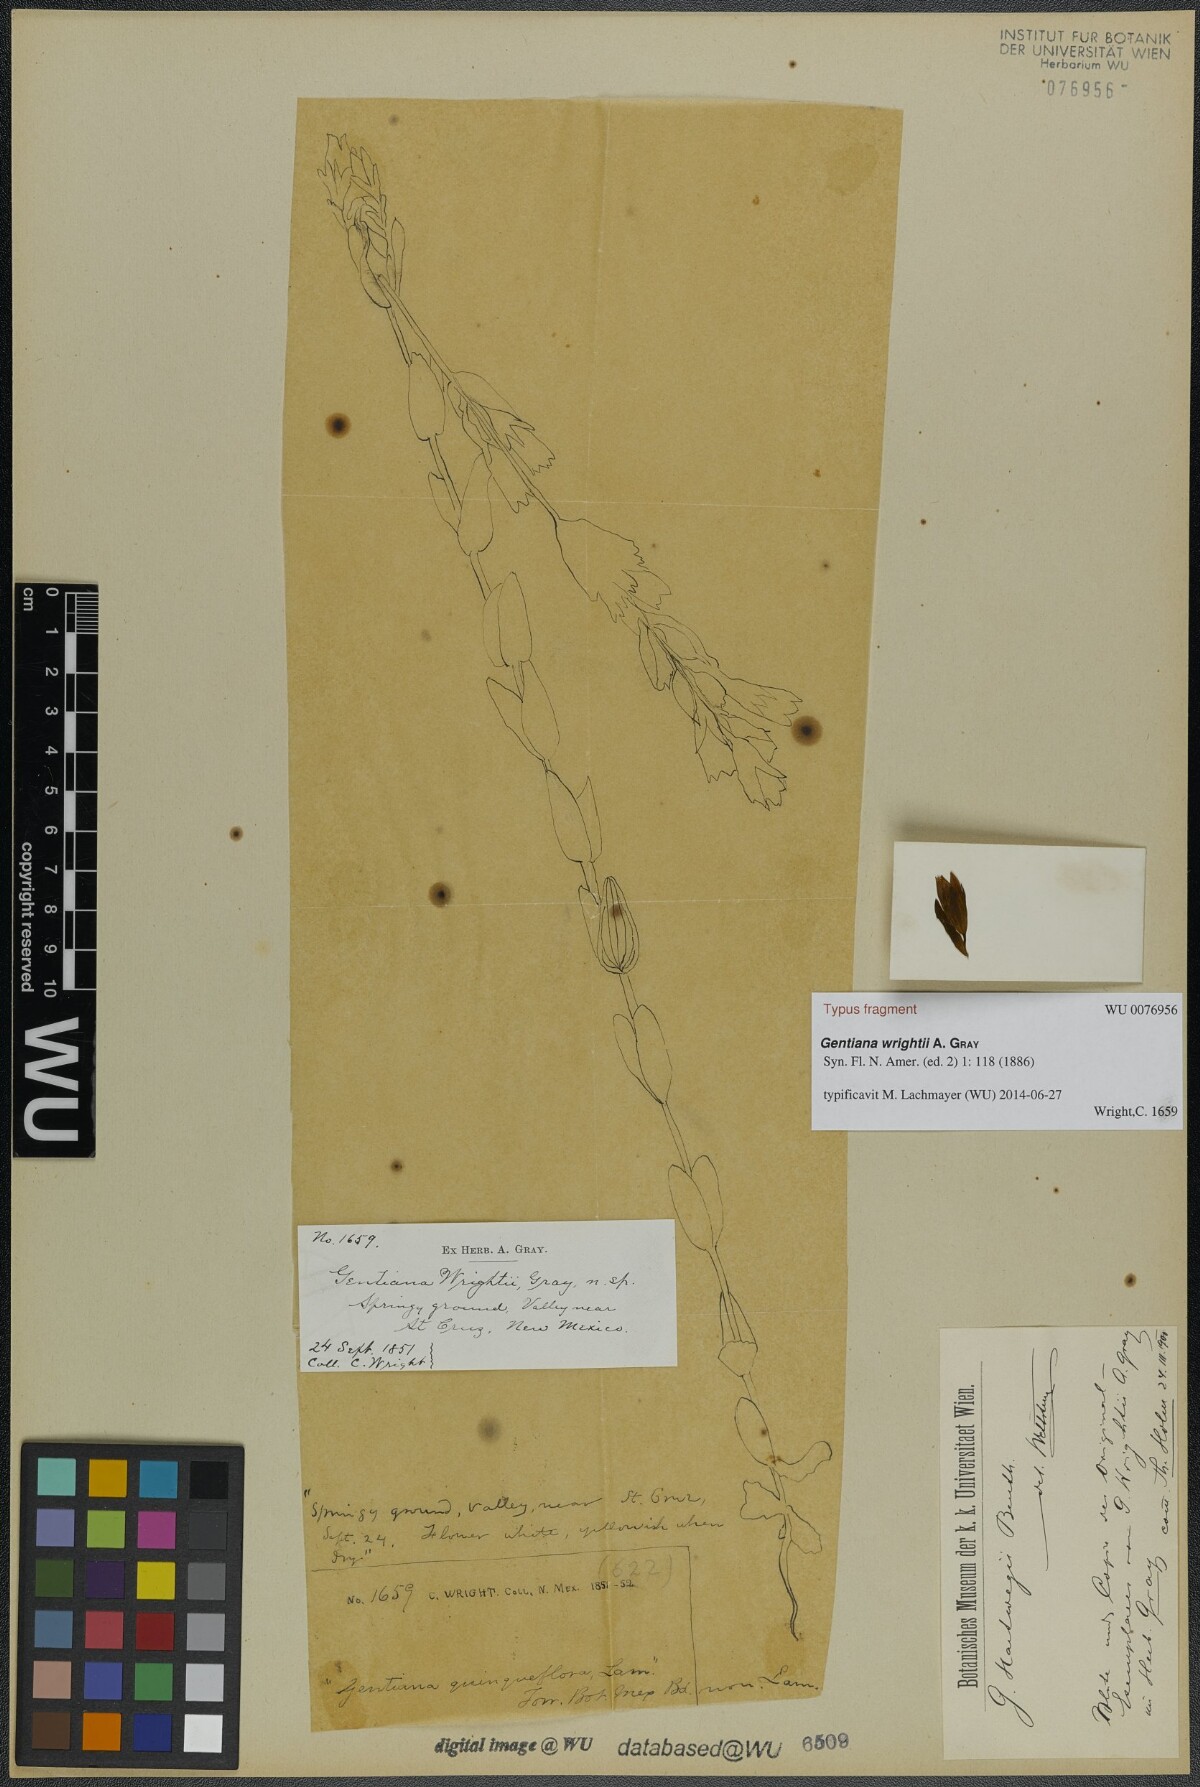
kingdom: Plantae
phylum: Tracheophyta
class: Magnoliopsida
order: Gentianales
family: Gentianaceae
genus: Gentianella
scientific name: Gentianella wrightii
